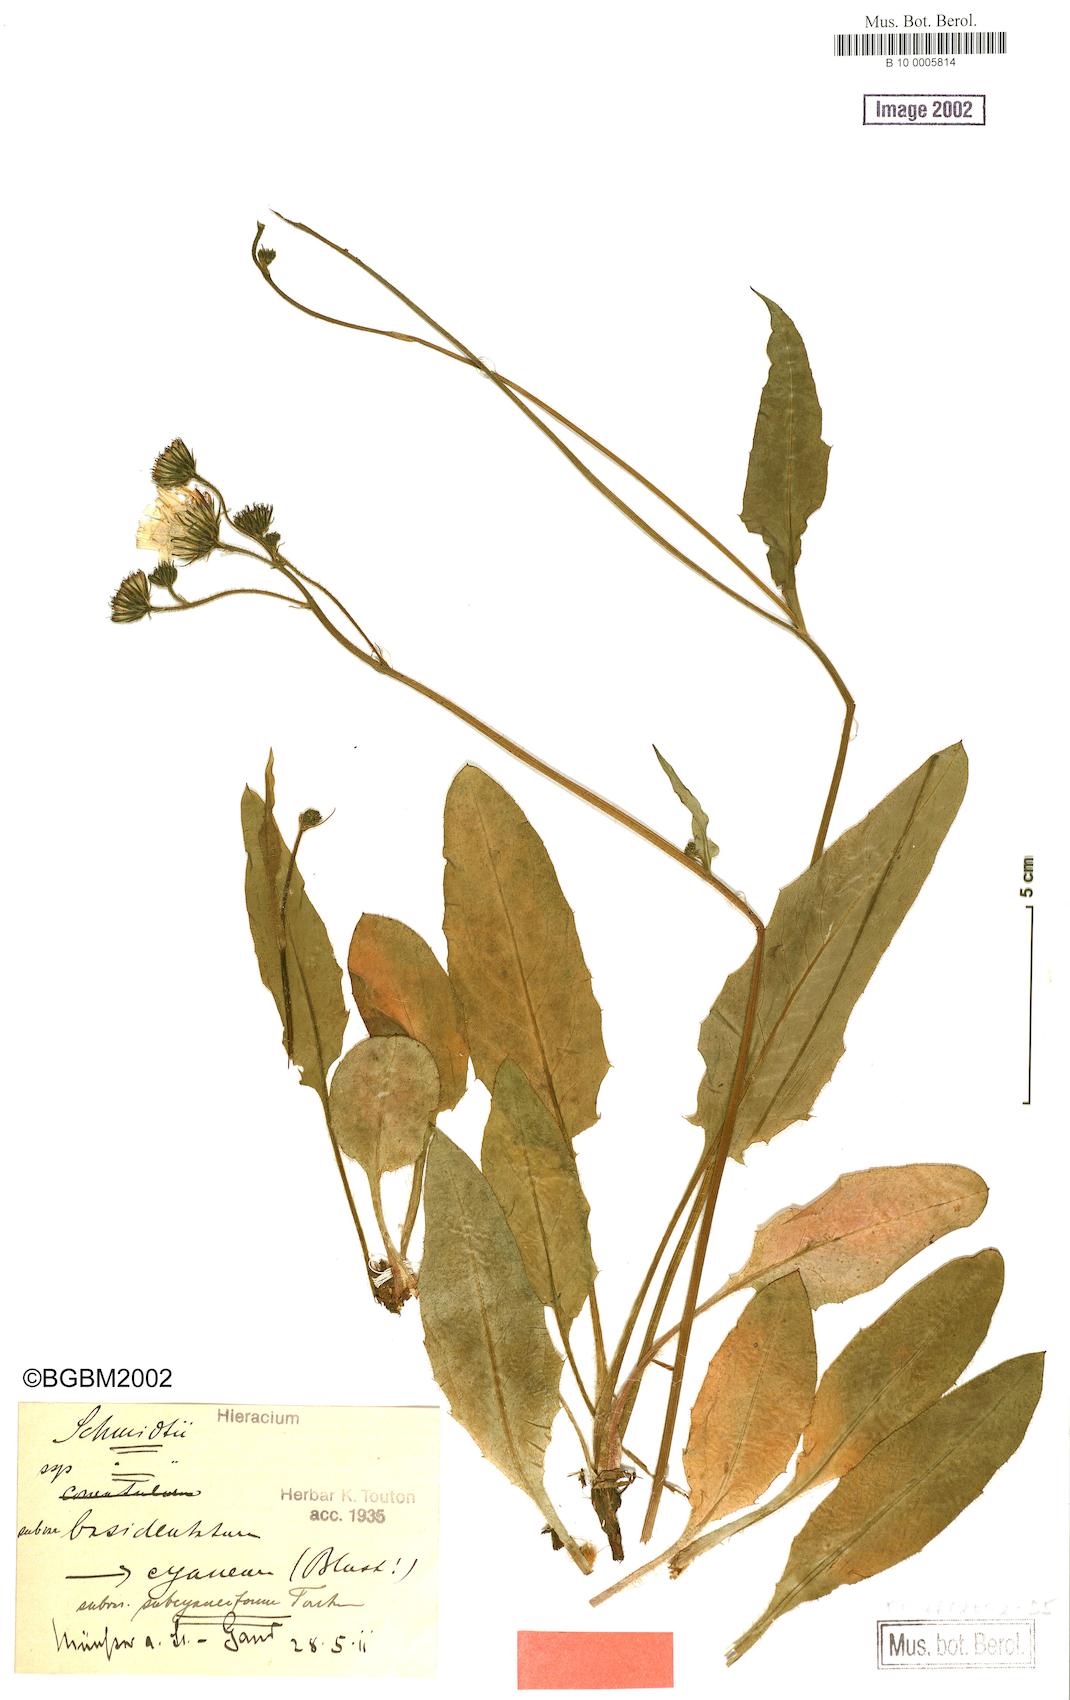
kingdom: Plantae
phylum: Tracheophyta
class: Magnoliopsida
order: Asterales
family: Asteraceae
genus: Hieracium
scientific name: Hieracium pallidum
